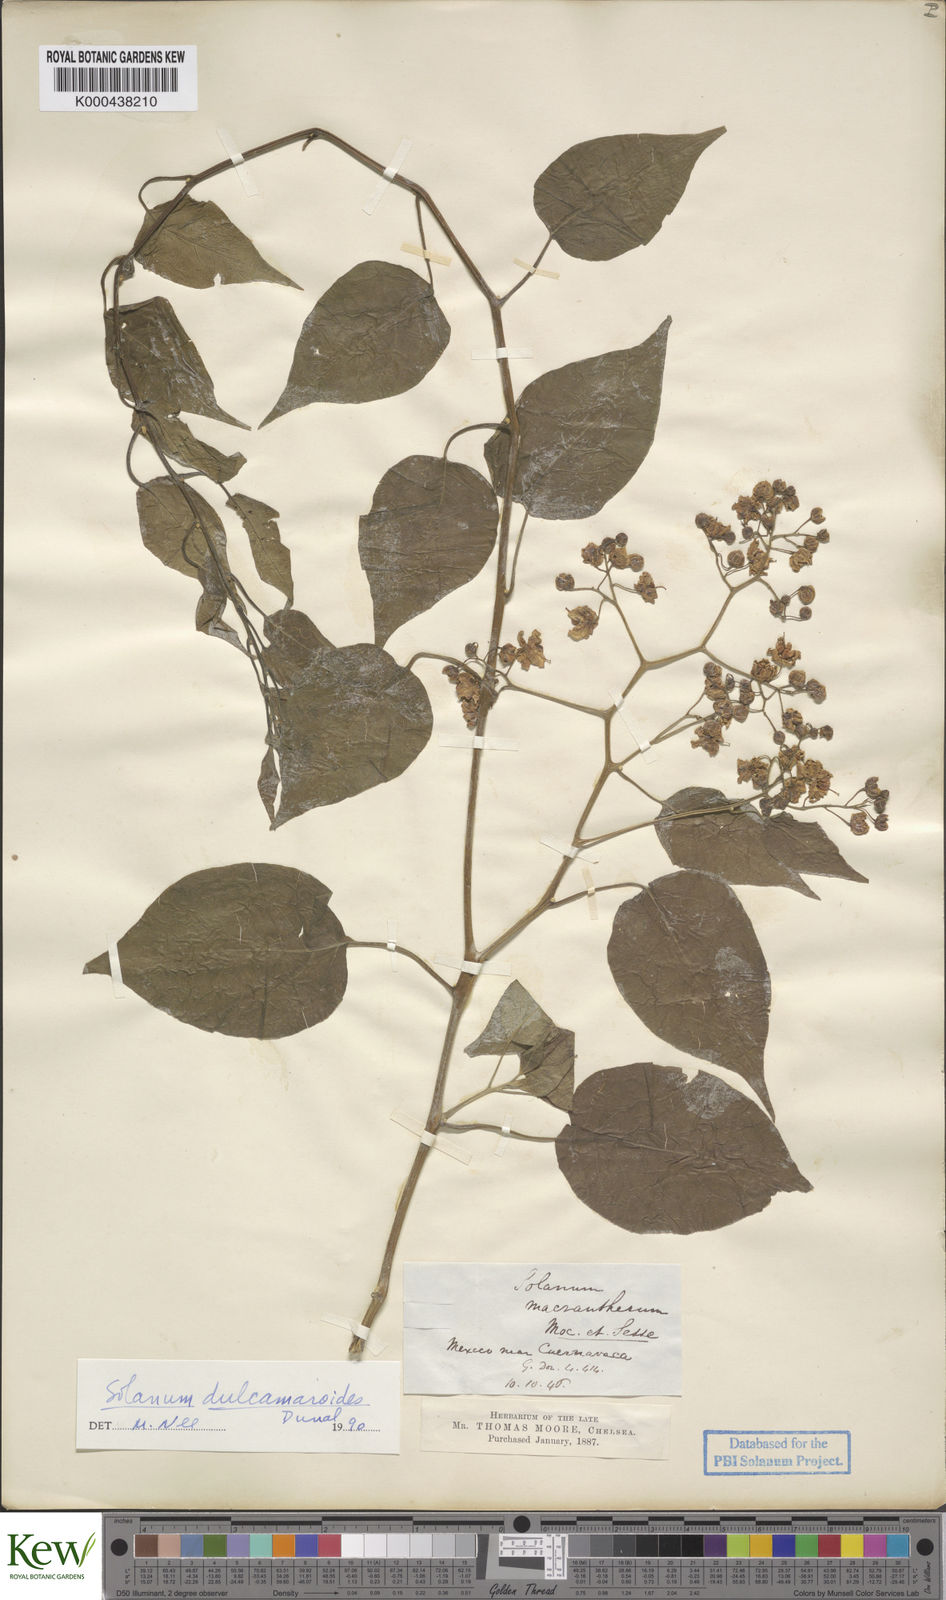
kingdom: Plantae
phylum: Tracheophyta
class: Magnoliopsida
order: Solanales
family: Solanaceae
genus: Solanum
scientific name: Solanum dulcamaroides
